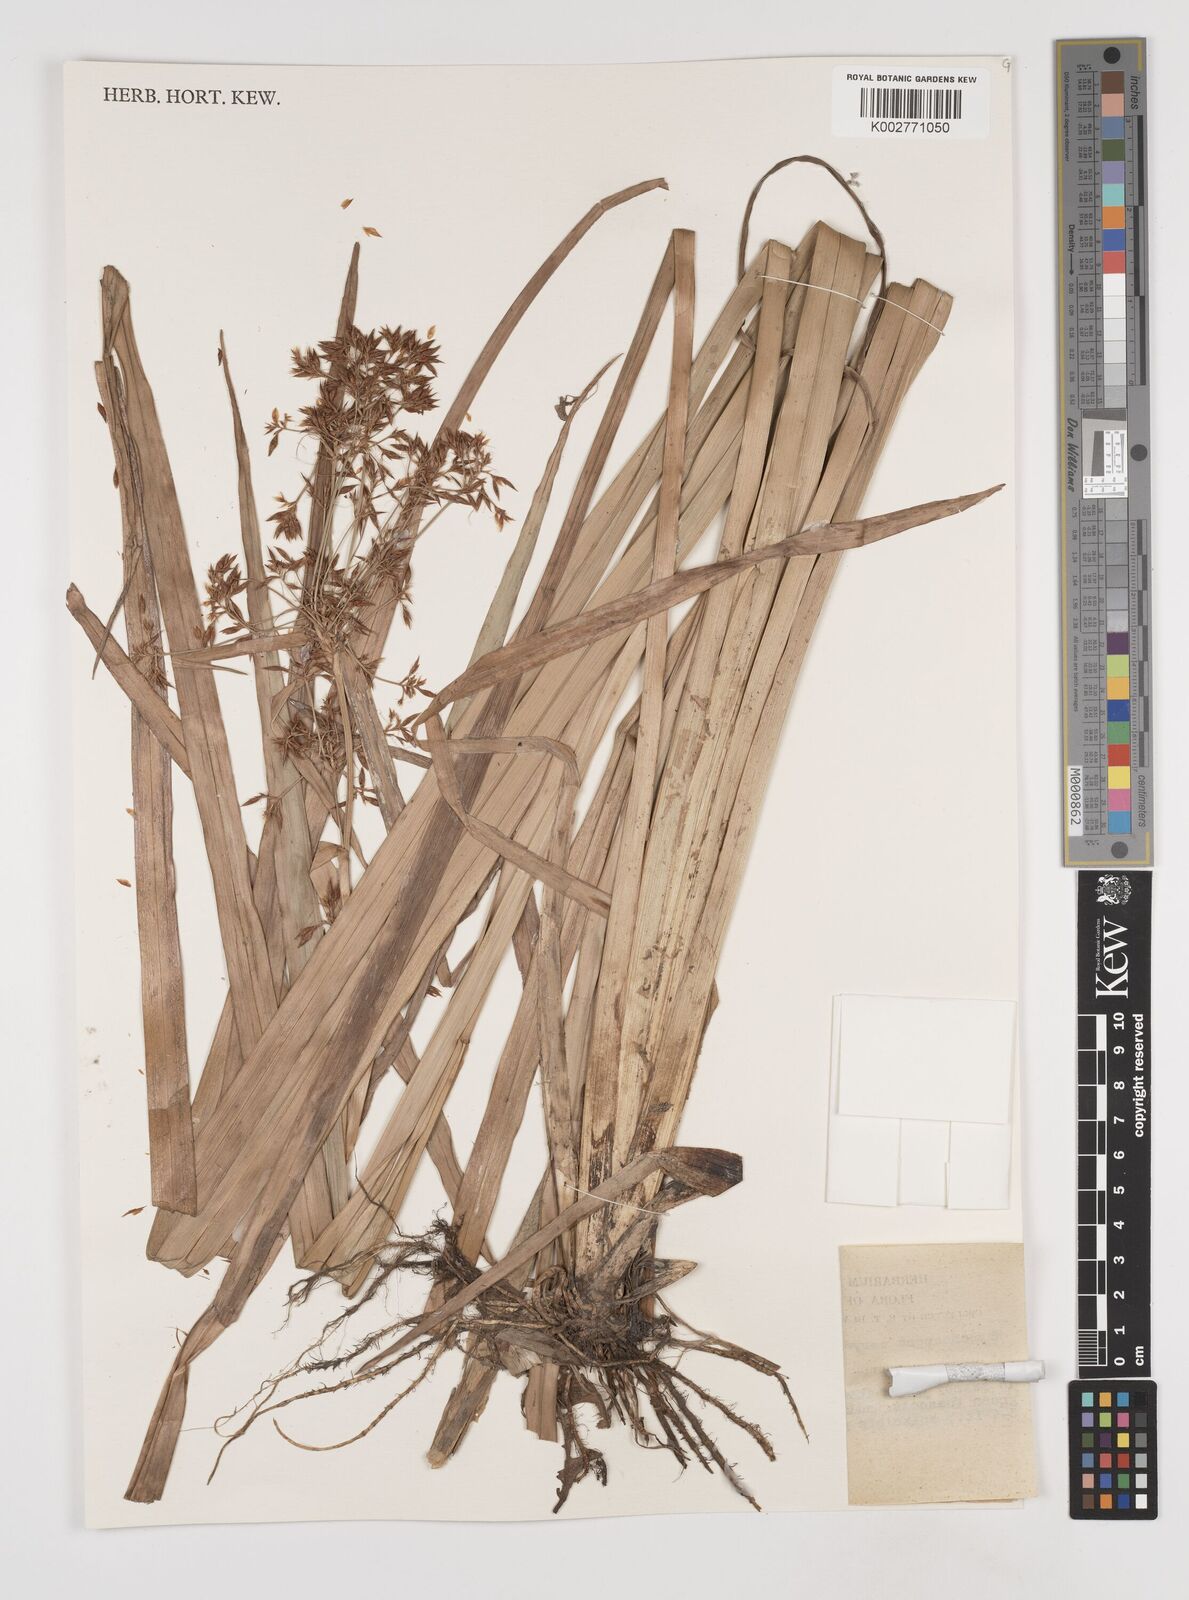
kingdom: Plantae
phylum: Tracheophyta
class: Liliopsida
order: Poales
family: Cyperaceae
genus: Rhynchospora
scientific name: Rhynchospora corymbosa
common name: Golden beak sedge
